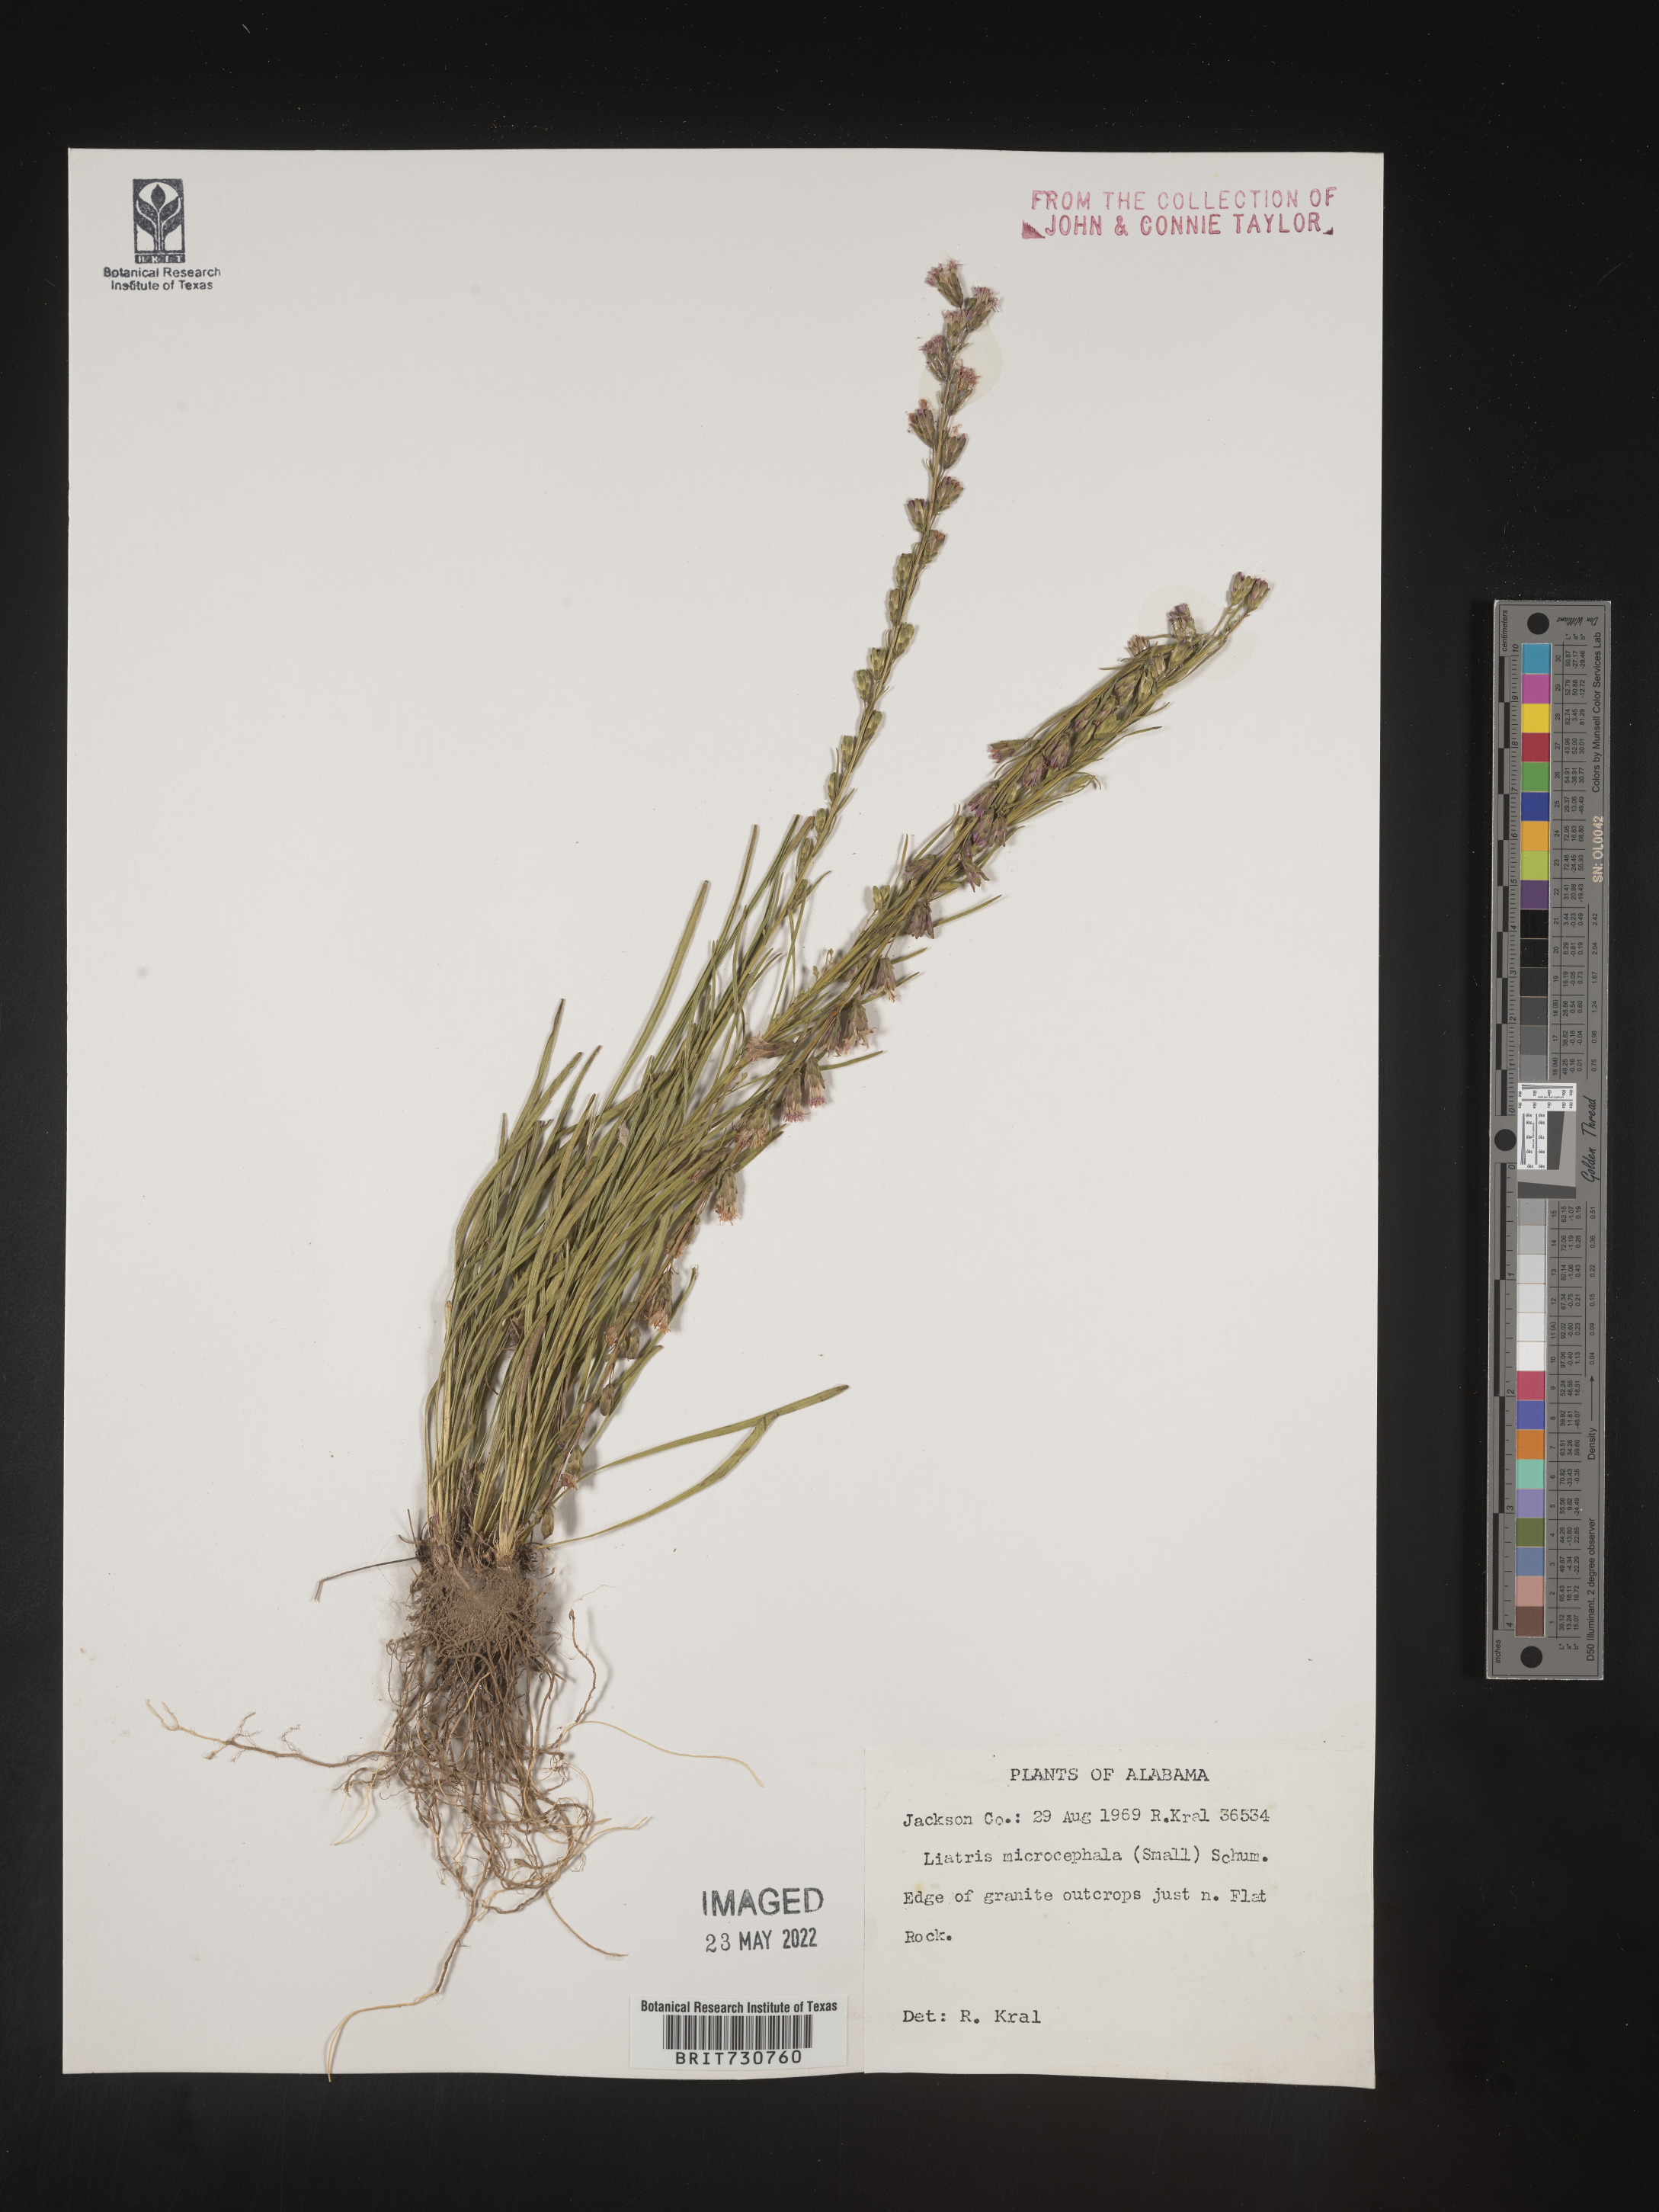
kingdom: Plantae
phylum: Tracheophyta
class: Magnoliopsida
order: Asterales
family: Asteraceae
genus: Liatris
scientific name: Liatris microcephala
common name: Small-head gayfeather
